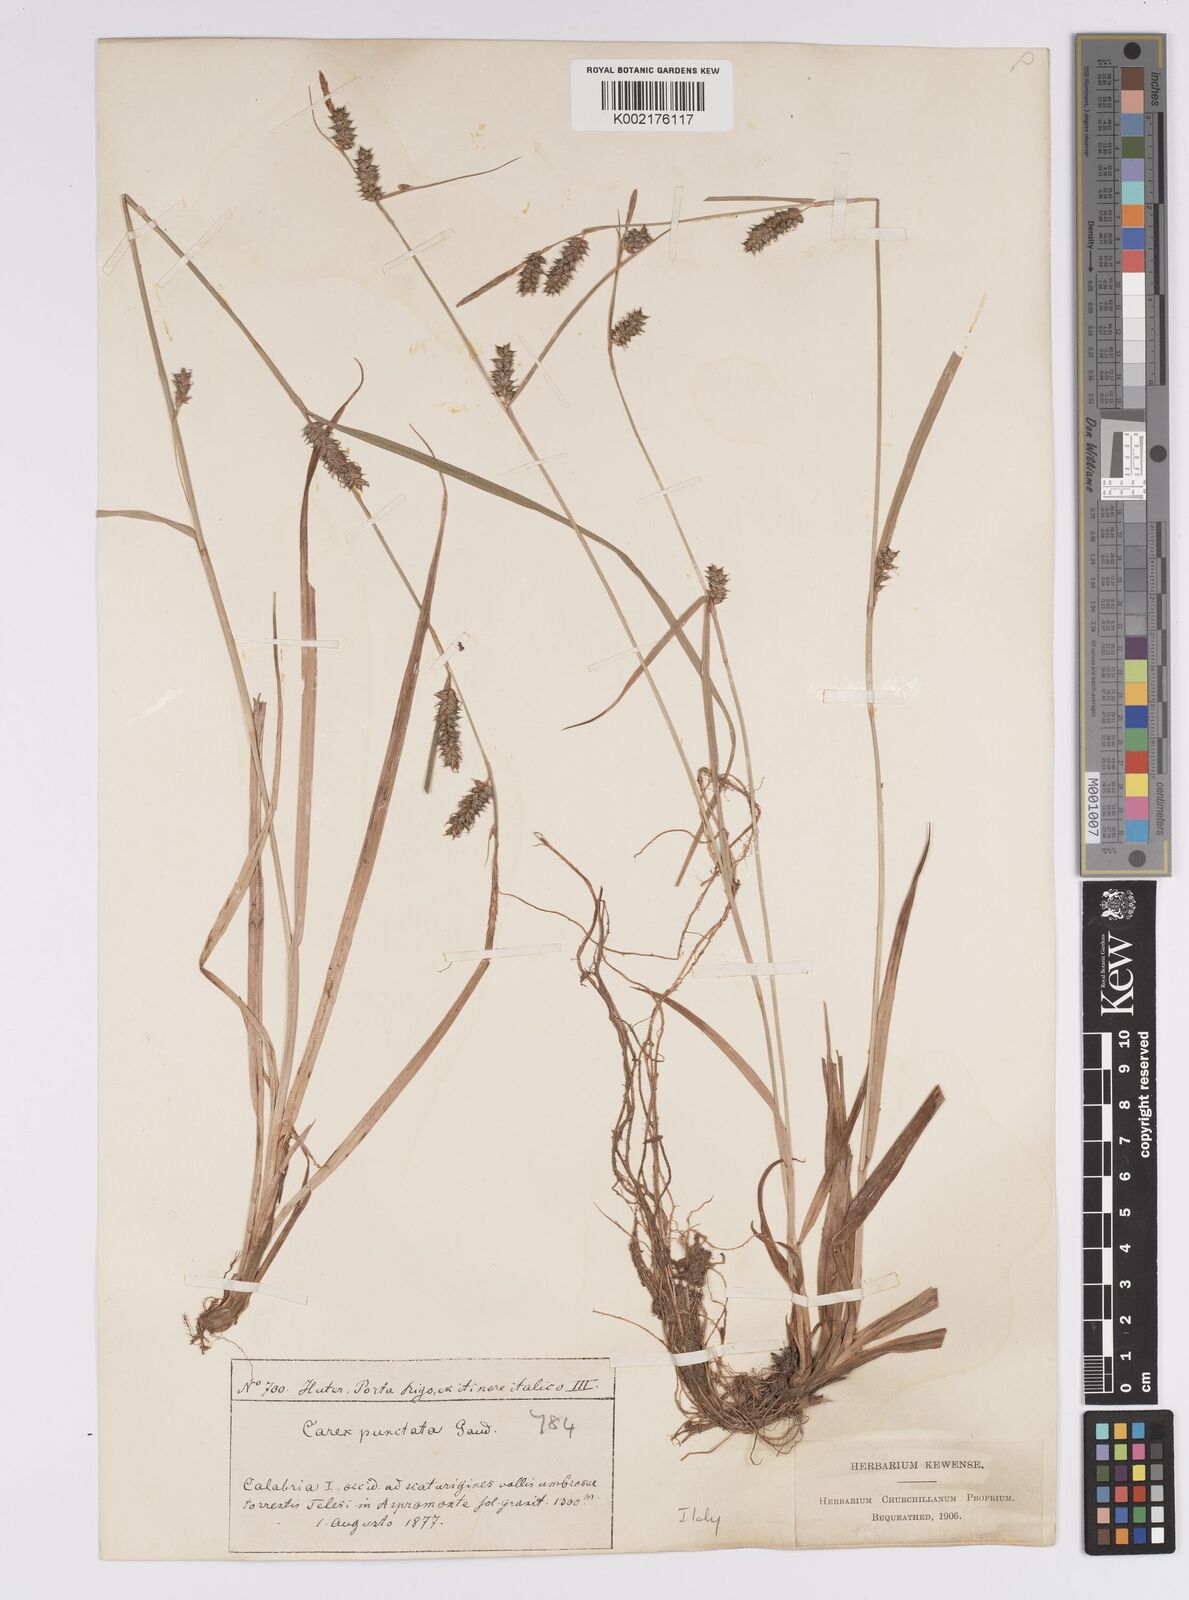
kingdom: Plantae
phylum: Tracheophyta
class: Liliopsida
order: Poales
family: Cyperaceae
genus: Carex
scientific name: Carex punctata
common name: Dotted sedge
